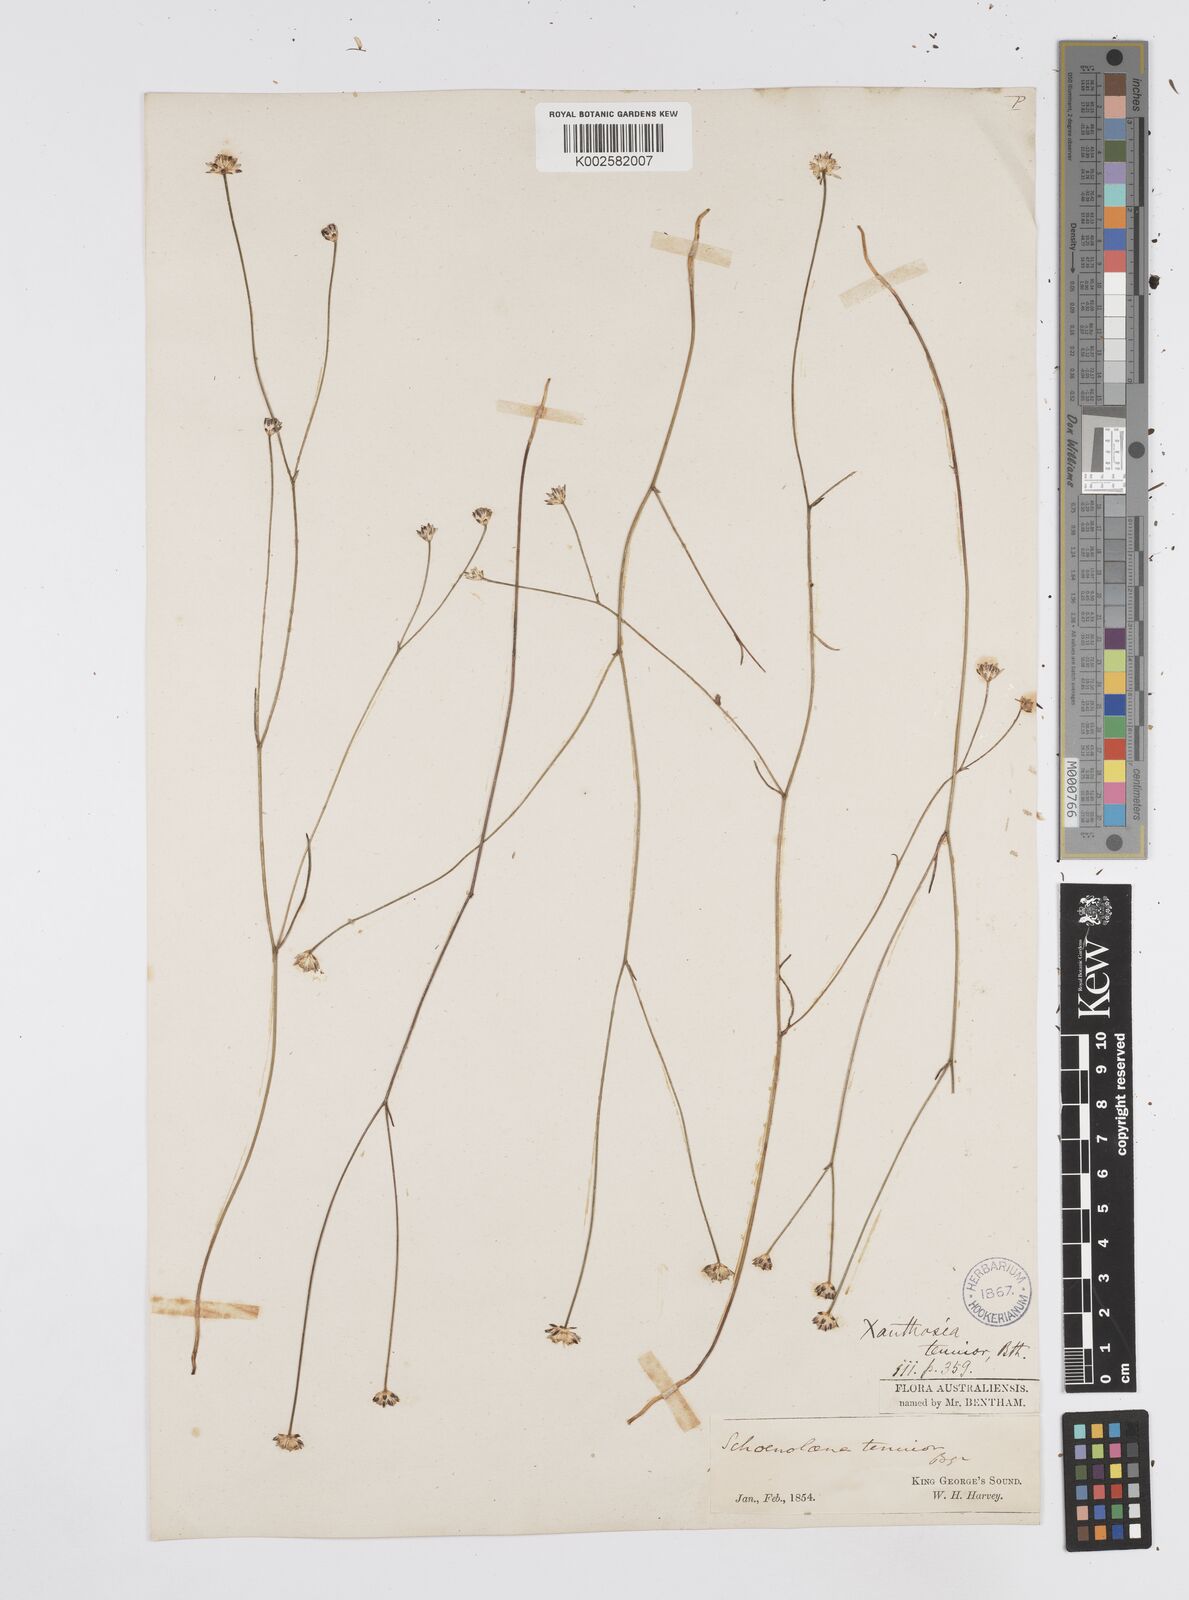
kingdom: Plantae
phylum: Tracheophyta
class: Magnoliopsida
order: Apiales
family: Apiaceae
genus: Schoenolaena
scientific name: Schoenolaena juncea
